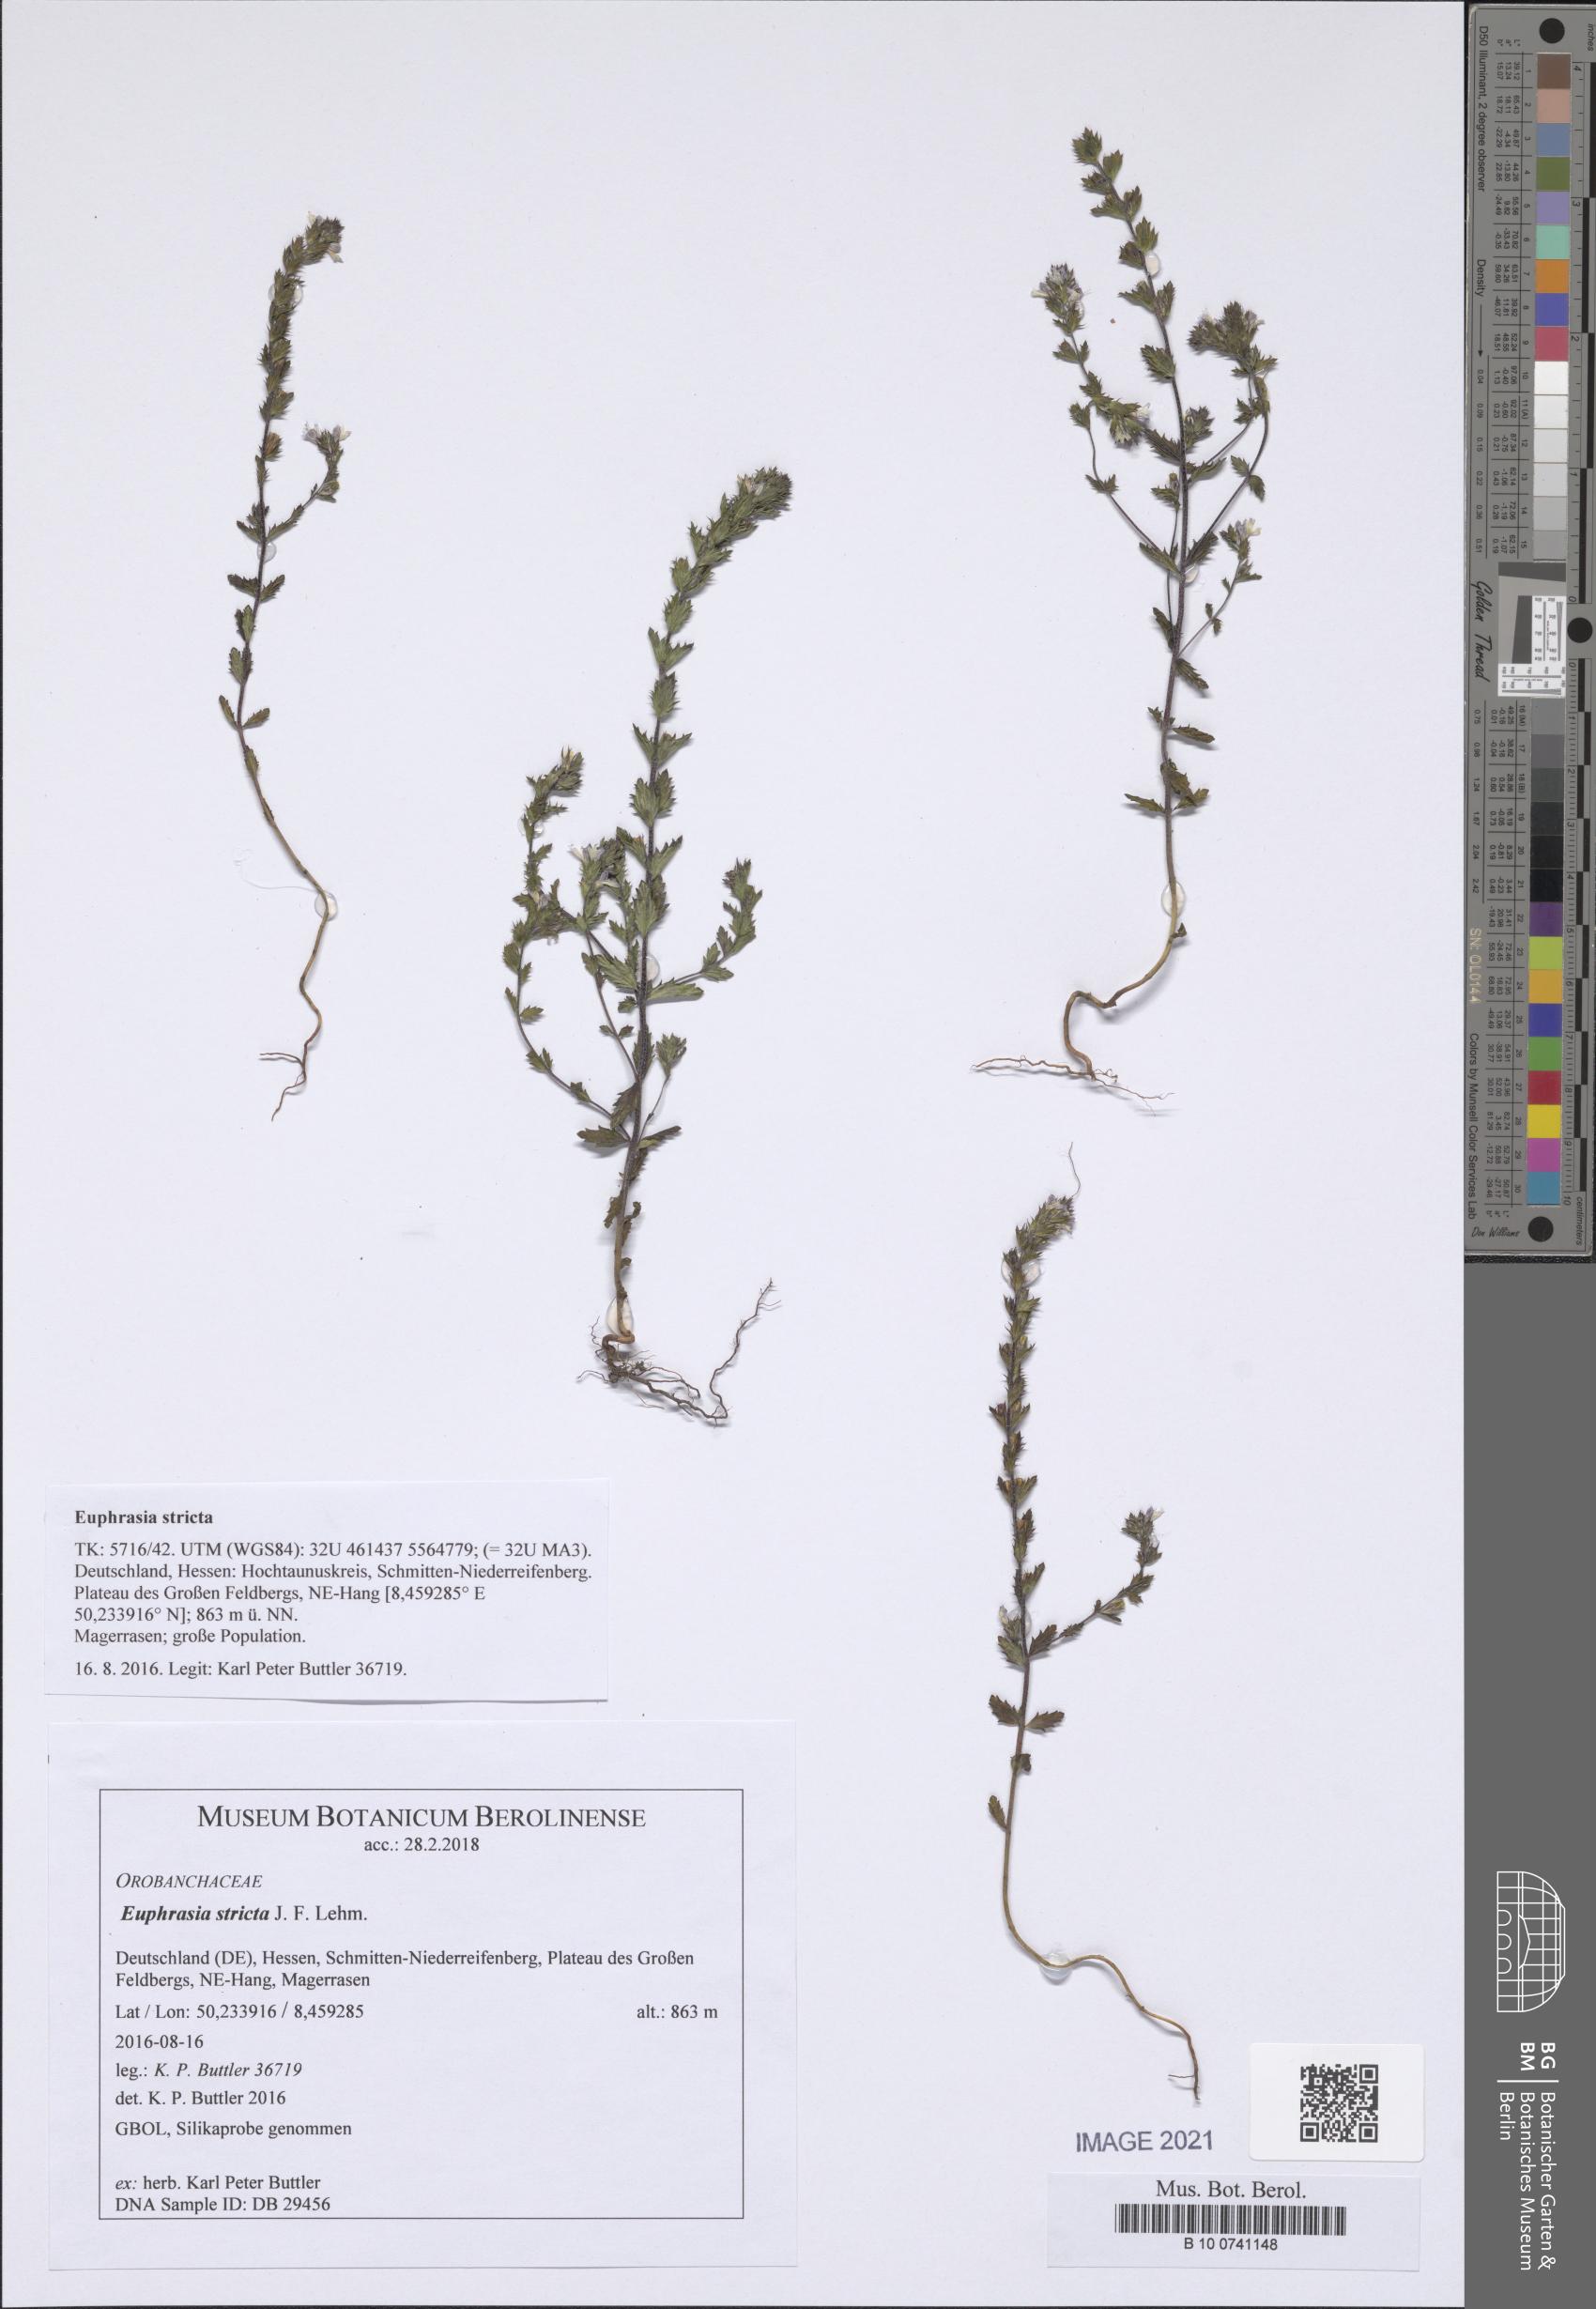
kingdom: Plantae
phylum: Tracheophyta
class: Magnoliopsida
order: Lamiales
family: Orobanchaceae
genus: Euphrasia
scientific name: Euphrasia stricta
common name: Drug eyebright
